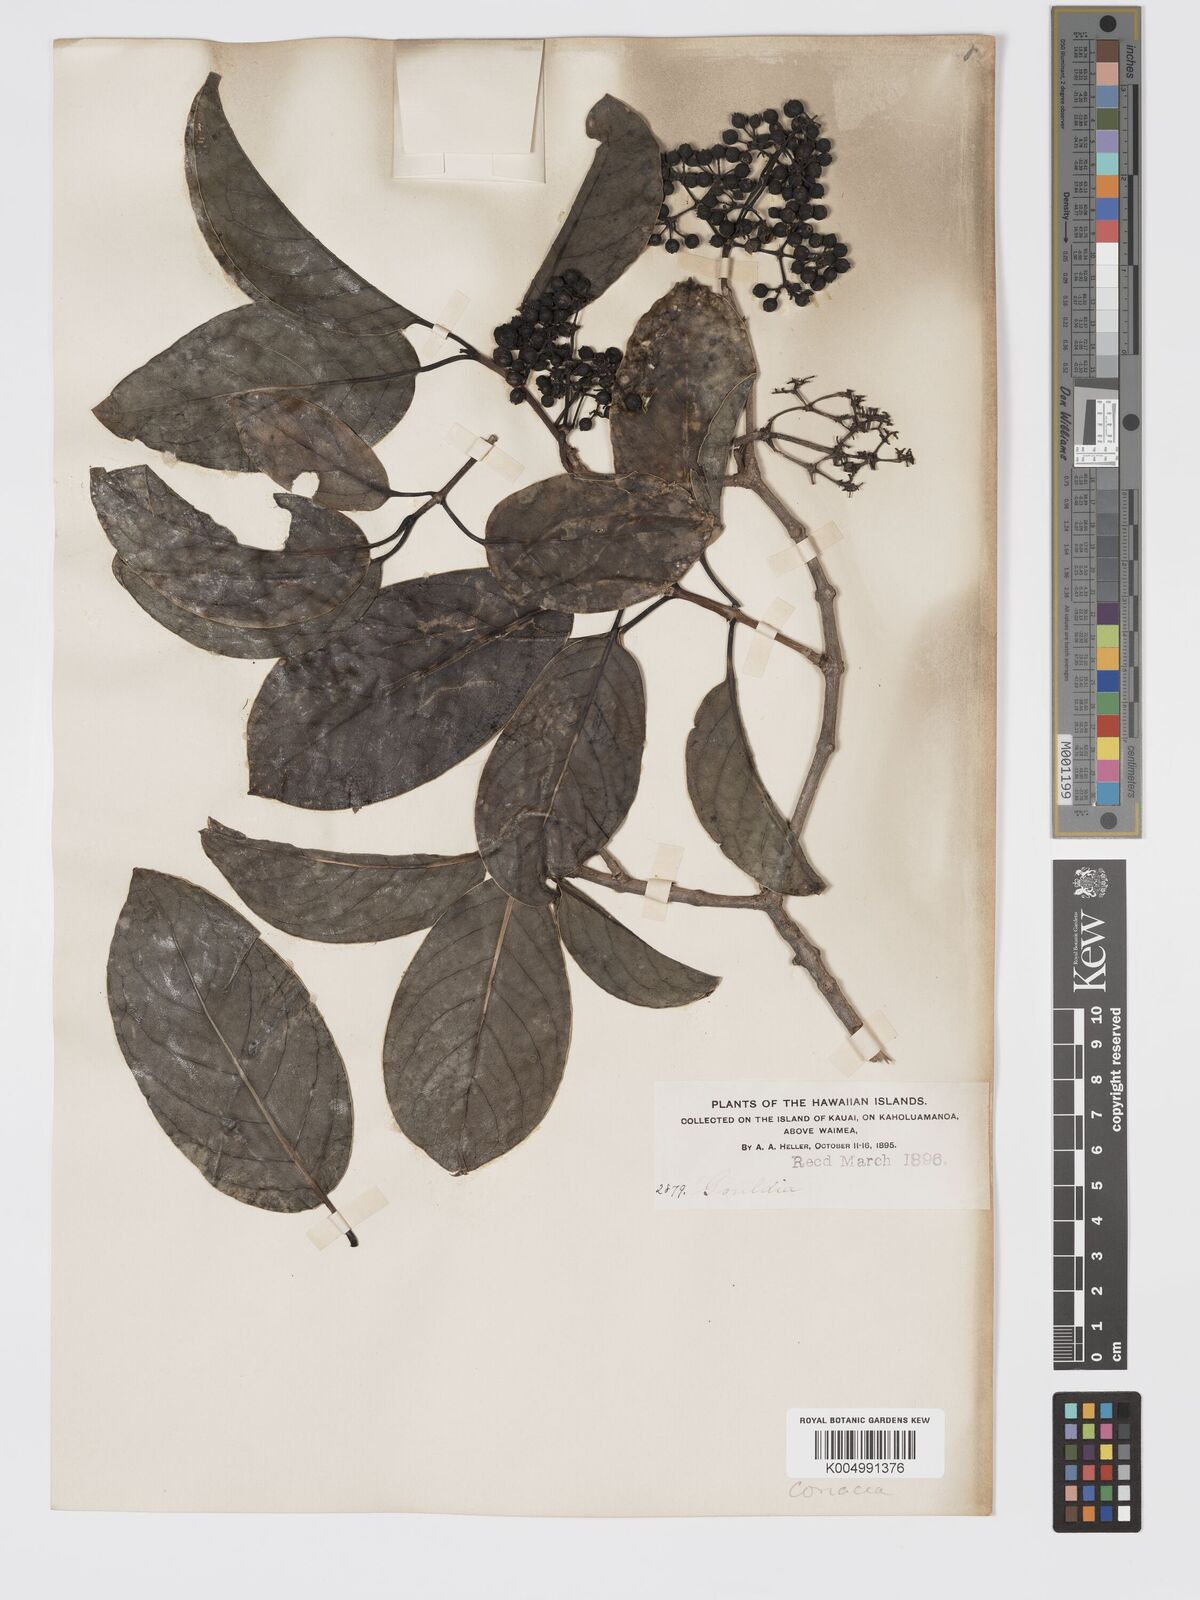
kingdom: Plantae
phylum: Tracheophyta
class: Magnoliopsida
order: Gentianales
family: Rubiaceae
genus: Kadua
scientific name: Kadua affinis
